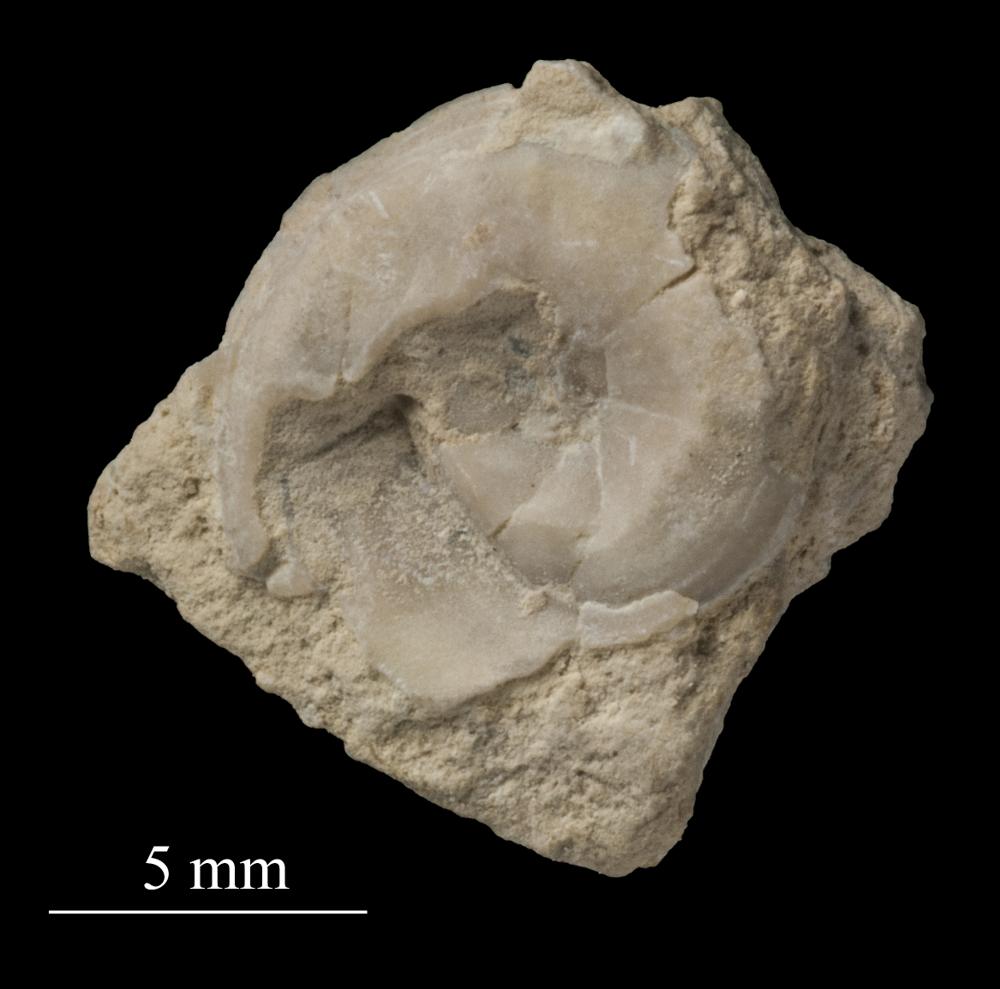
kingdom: Animalia
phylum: Mollusca
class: Gastropoda
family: Platyceratidae
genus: Cyclonema
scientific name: Cyclonema Turbo rupestre
